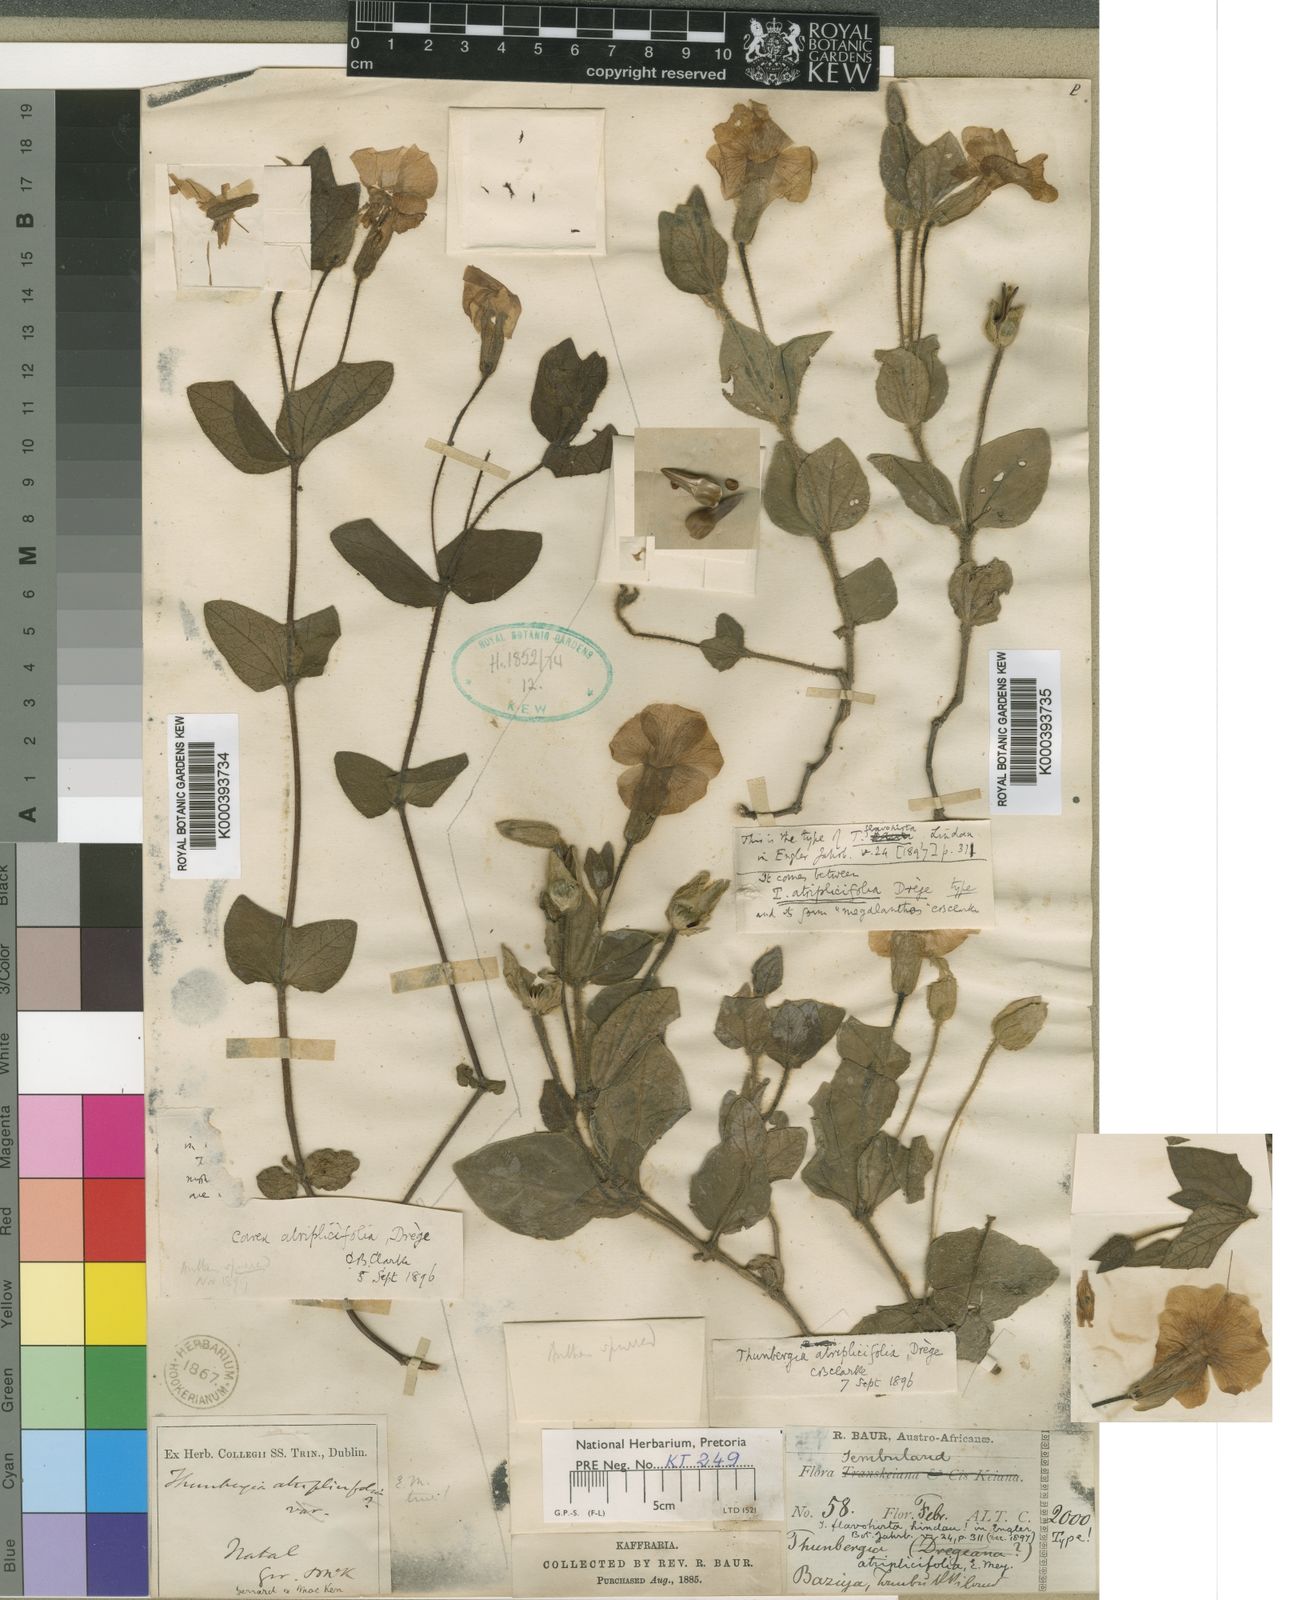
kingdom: Plantae
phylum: Tracheophyta
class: Magnoliopsida
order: Lamiales
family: Acanthaceae
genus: Thunbergia
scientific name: Thunbergia atriplicifolia
